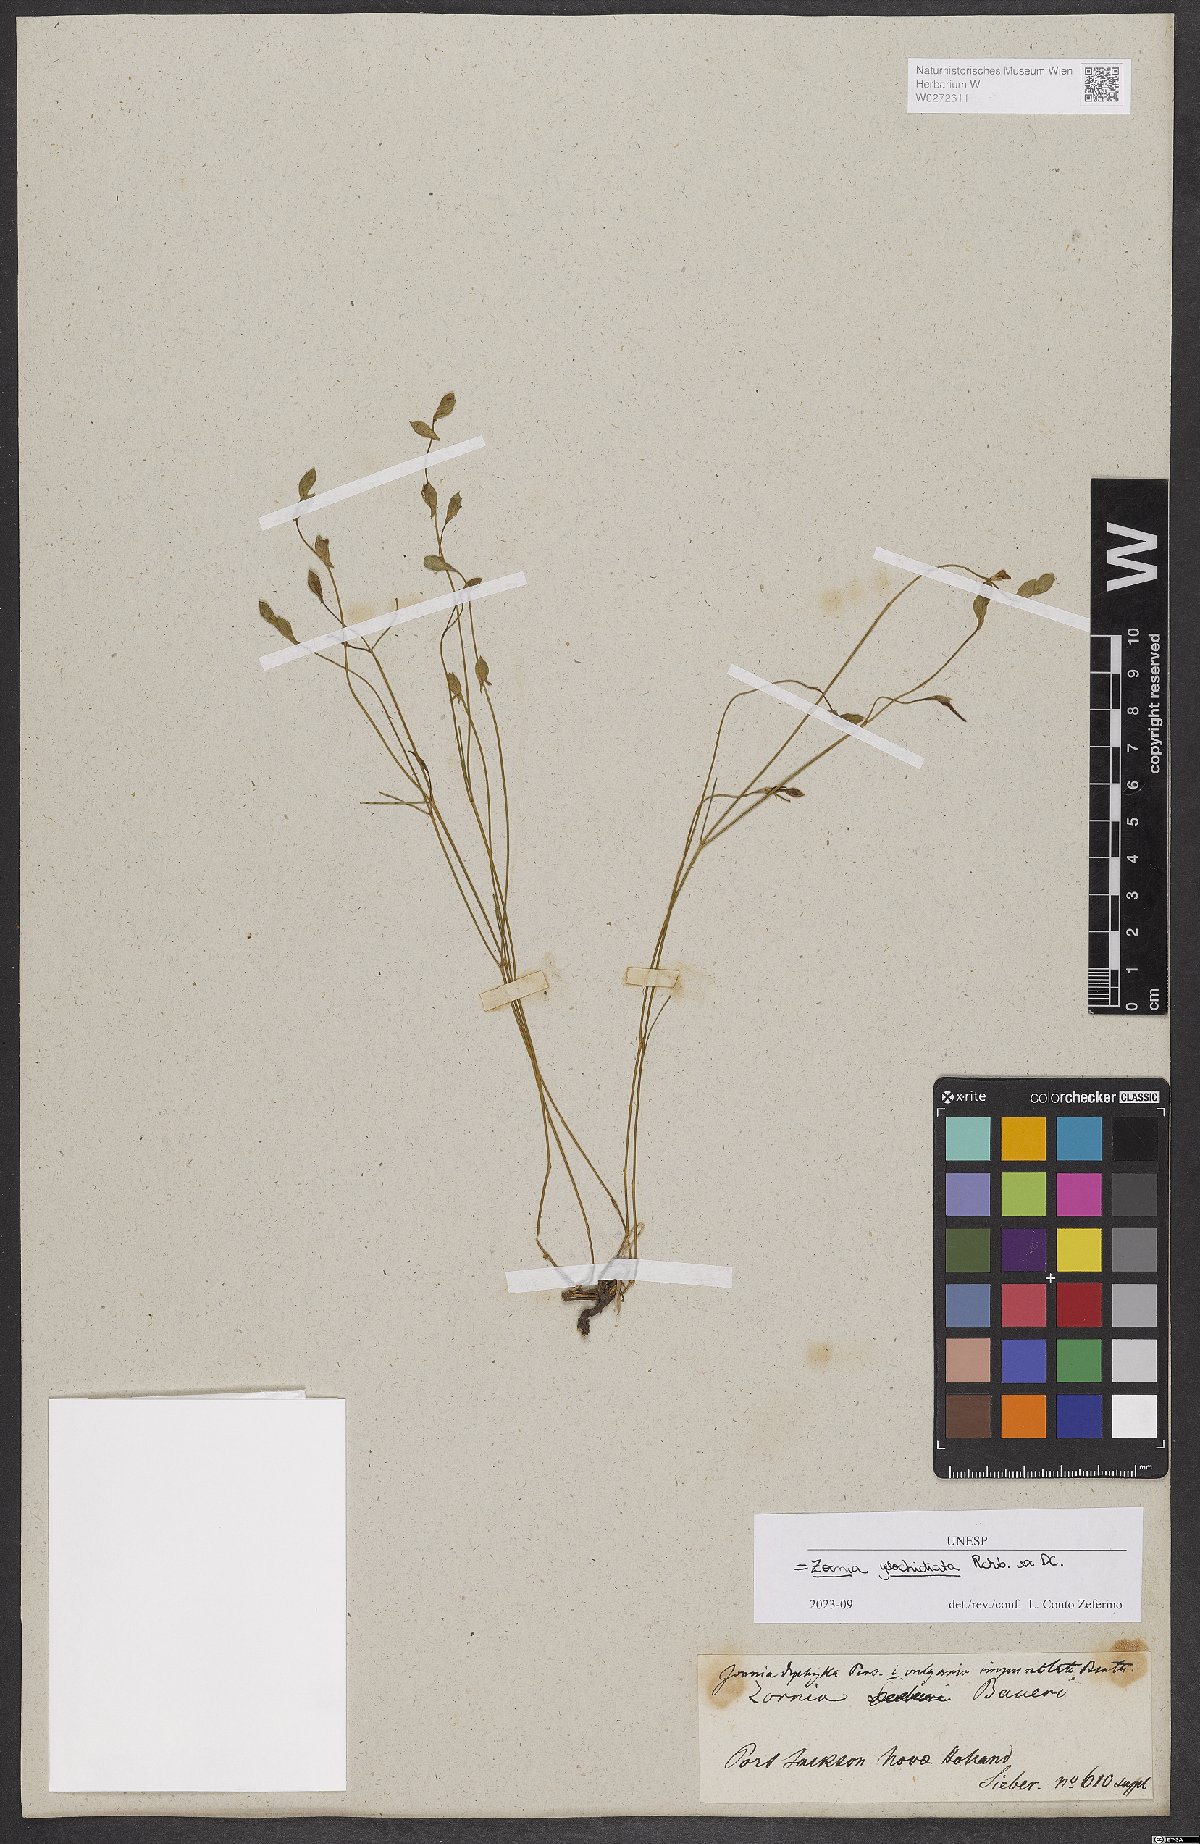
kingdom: Plantae
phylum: Tracheophyta
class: Magnoliopsida
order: Fabales
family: Fabaceae
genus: Zornia
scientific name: Zornia glochidiata
